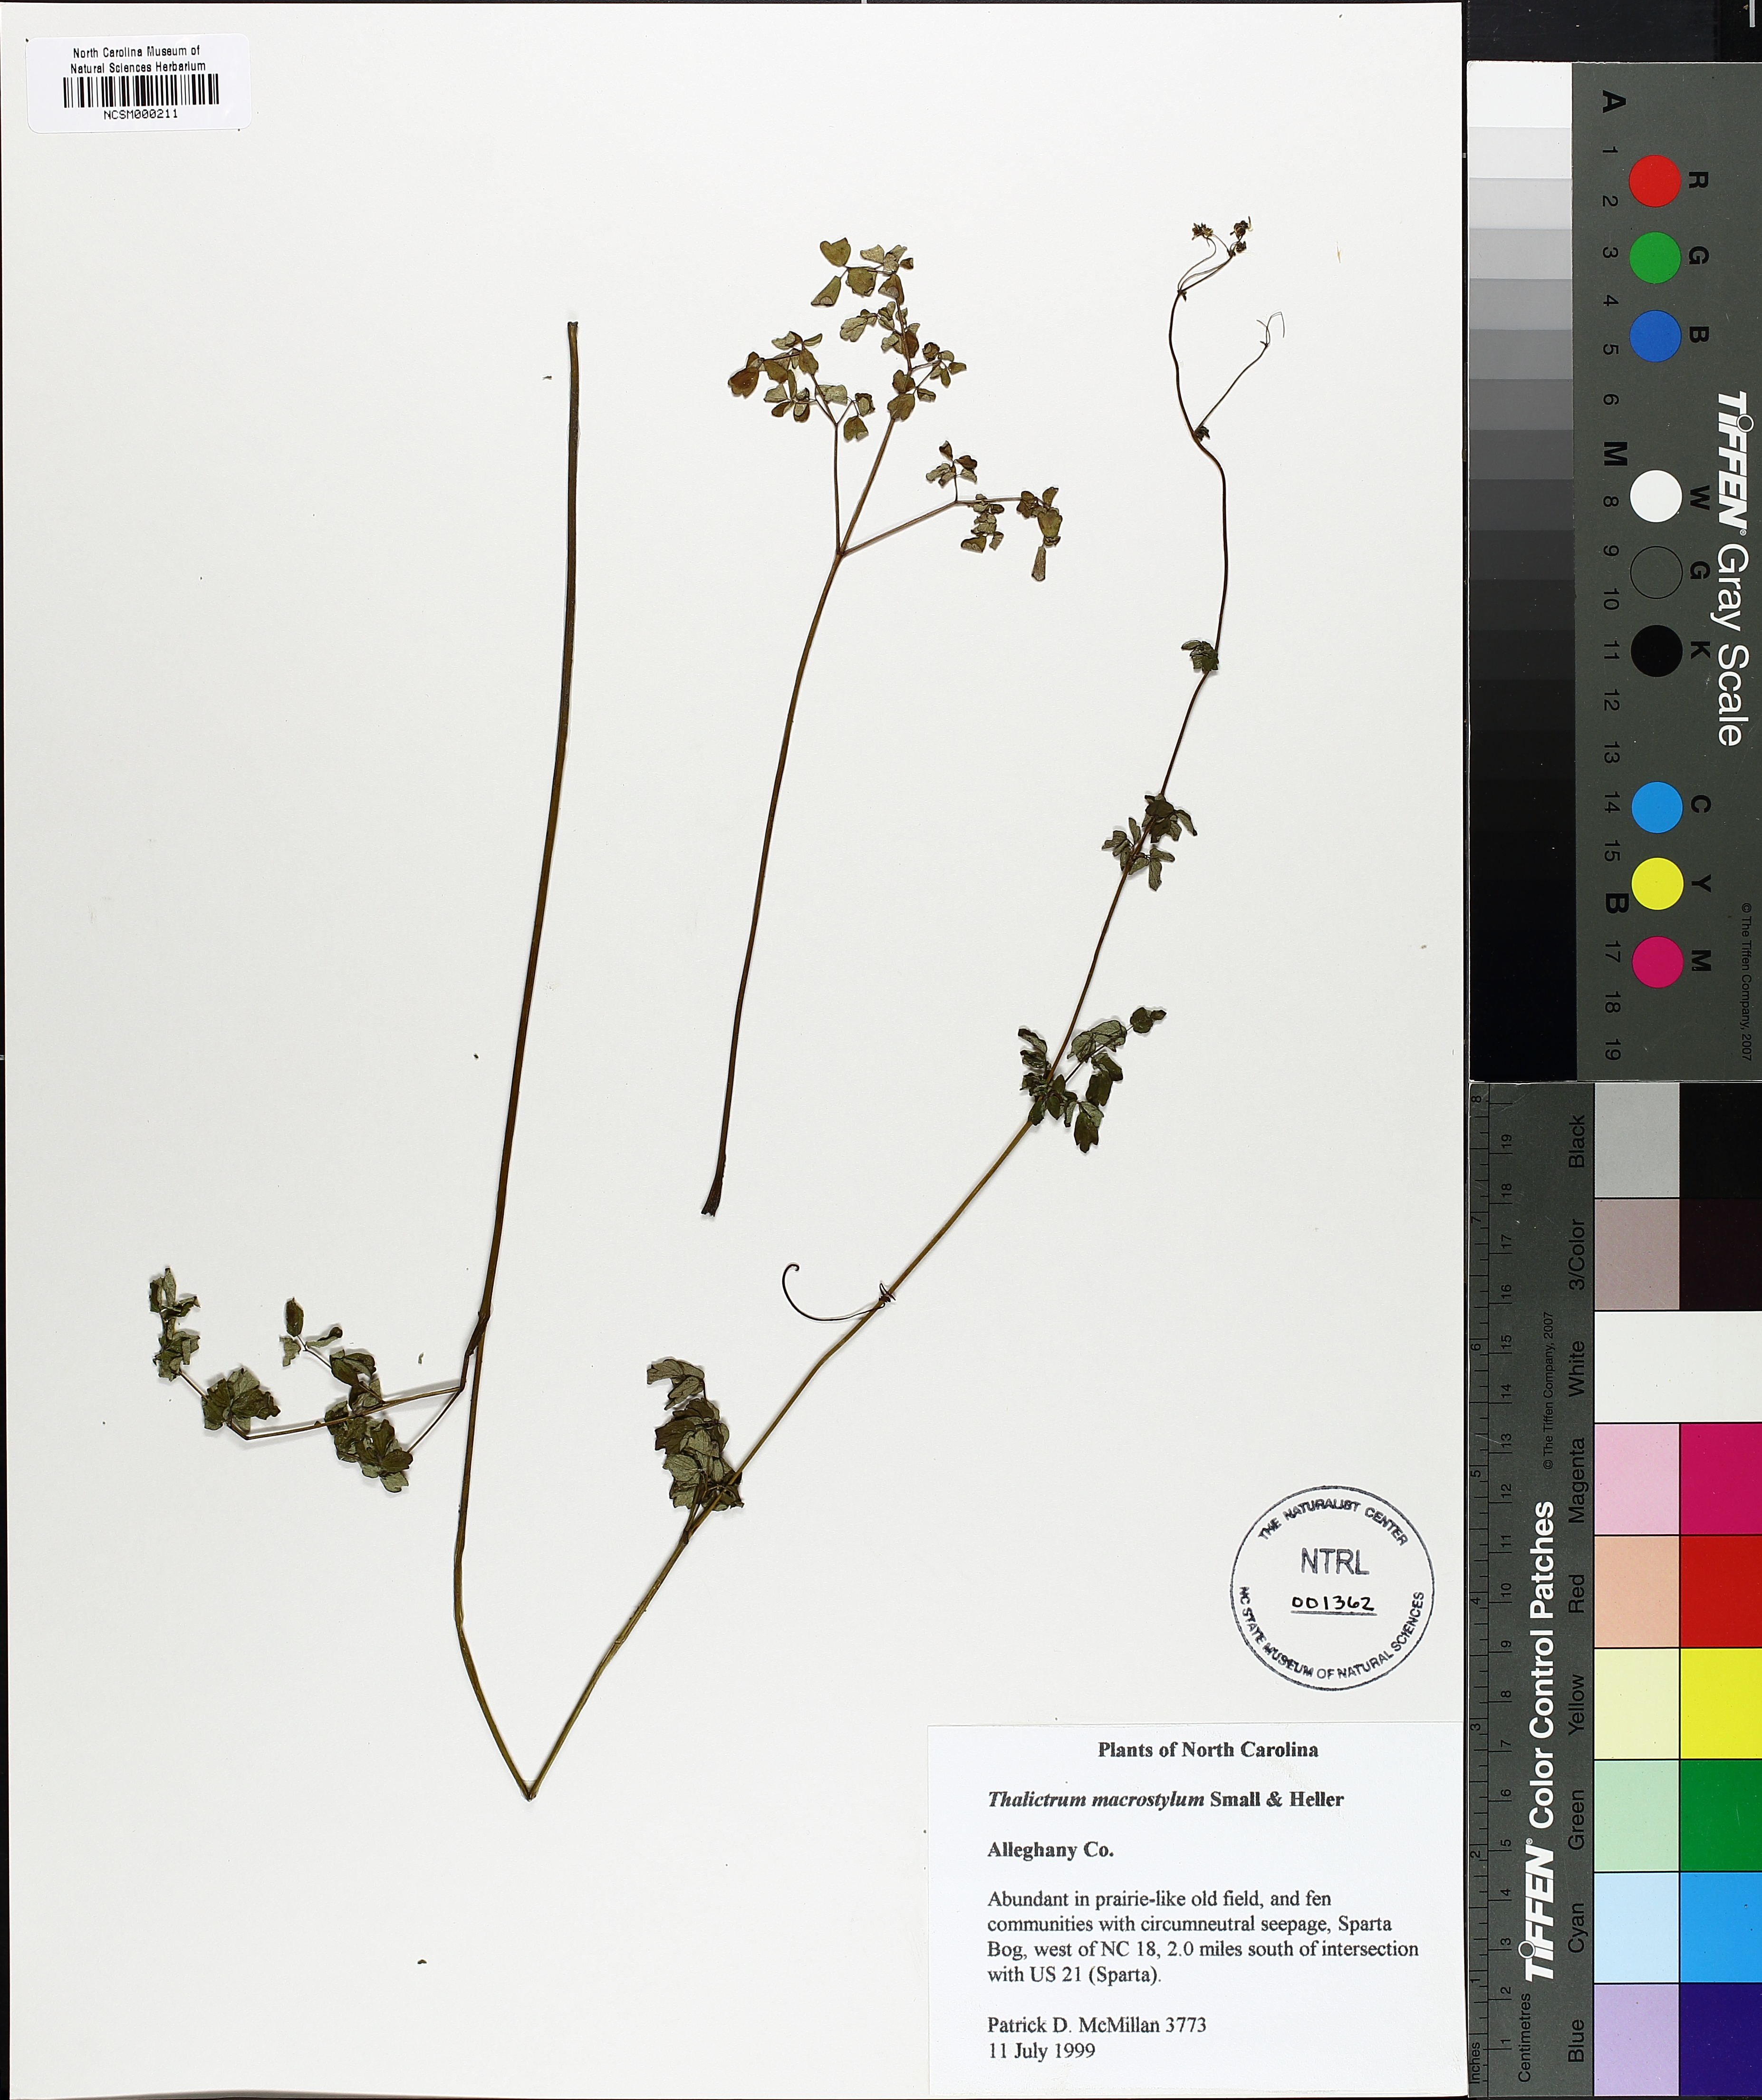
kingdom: Plantae
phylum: Tracheophyta
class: Magnoliopsida
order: Ranunculales
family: Ranunculaceae
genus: Thalictrum
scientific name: Thalictrum macrostylum
